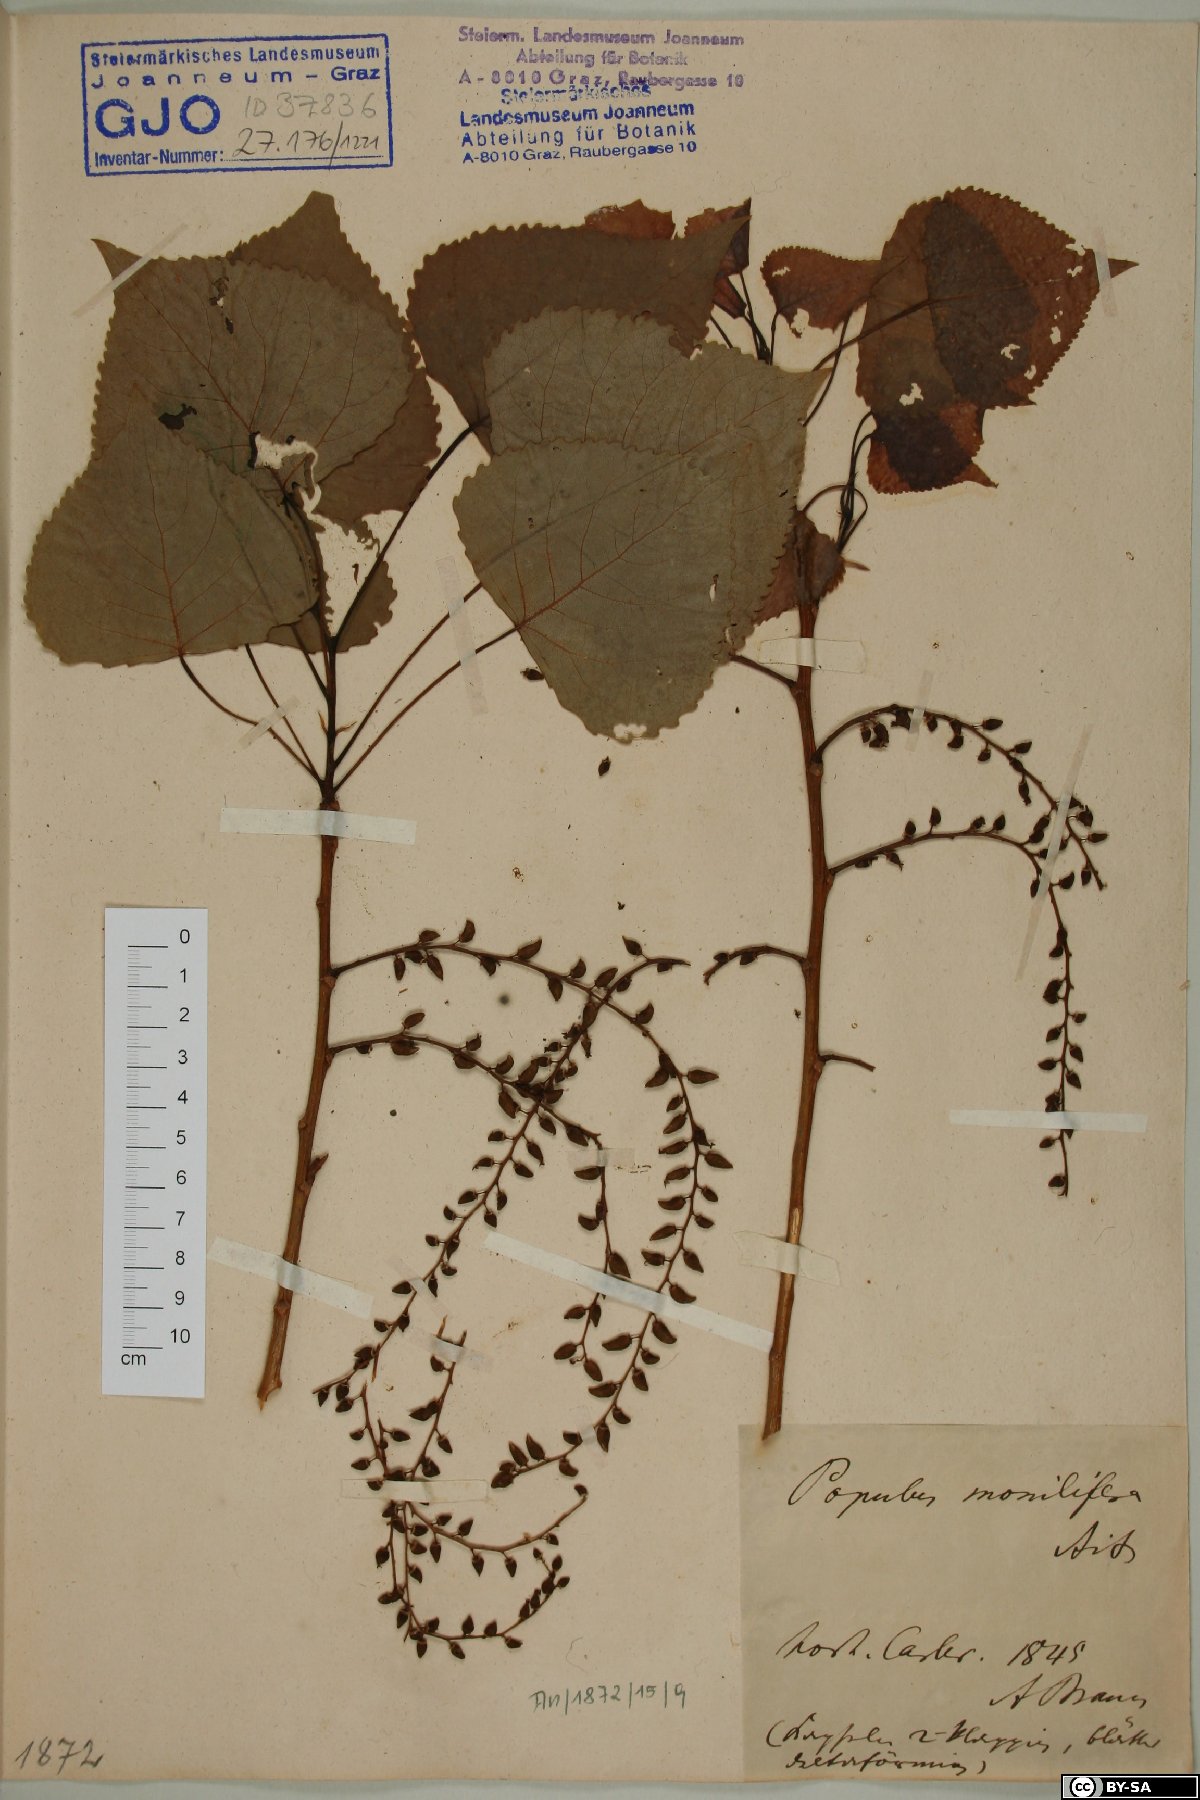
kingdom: Plantae
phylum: Tracheophyta
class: Magnoliopsida
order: Malpighiales
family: Salicaceae
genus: Populus
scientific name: Populus deltoides
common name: Eastern cottonwood
